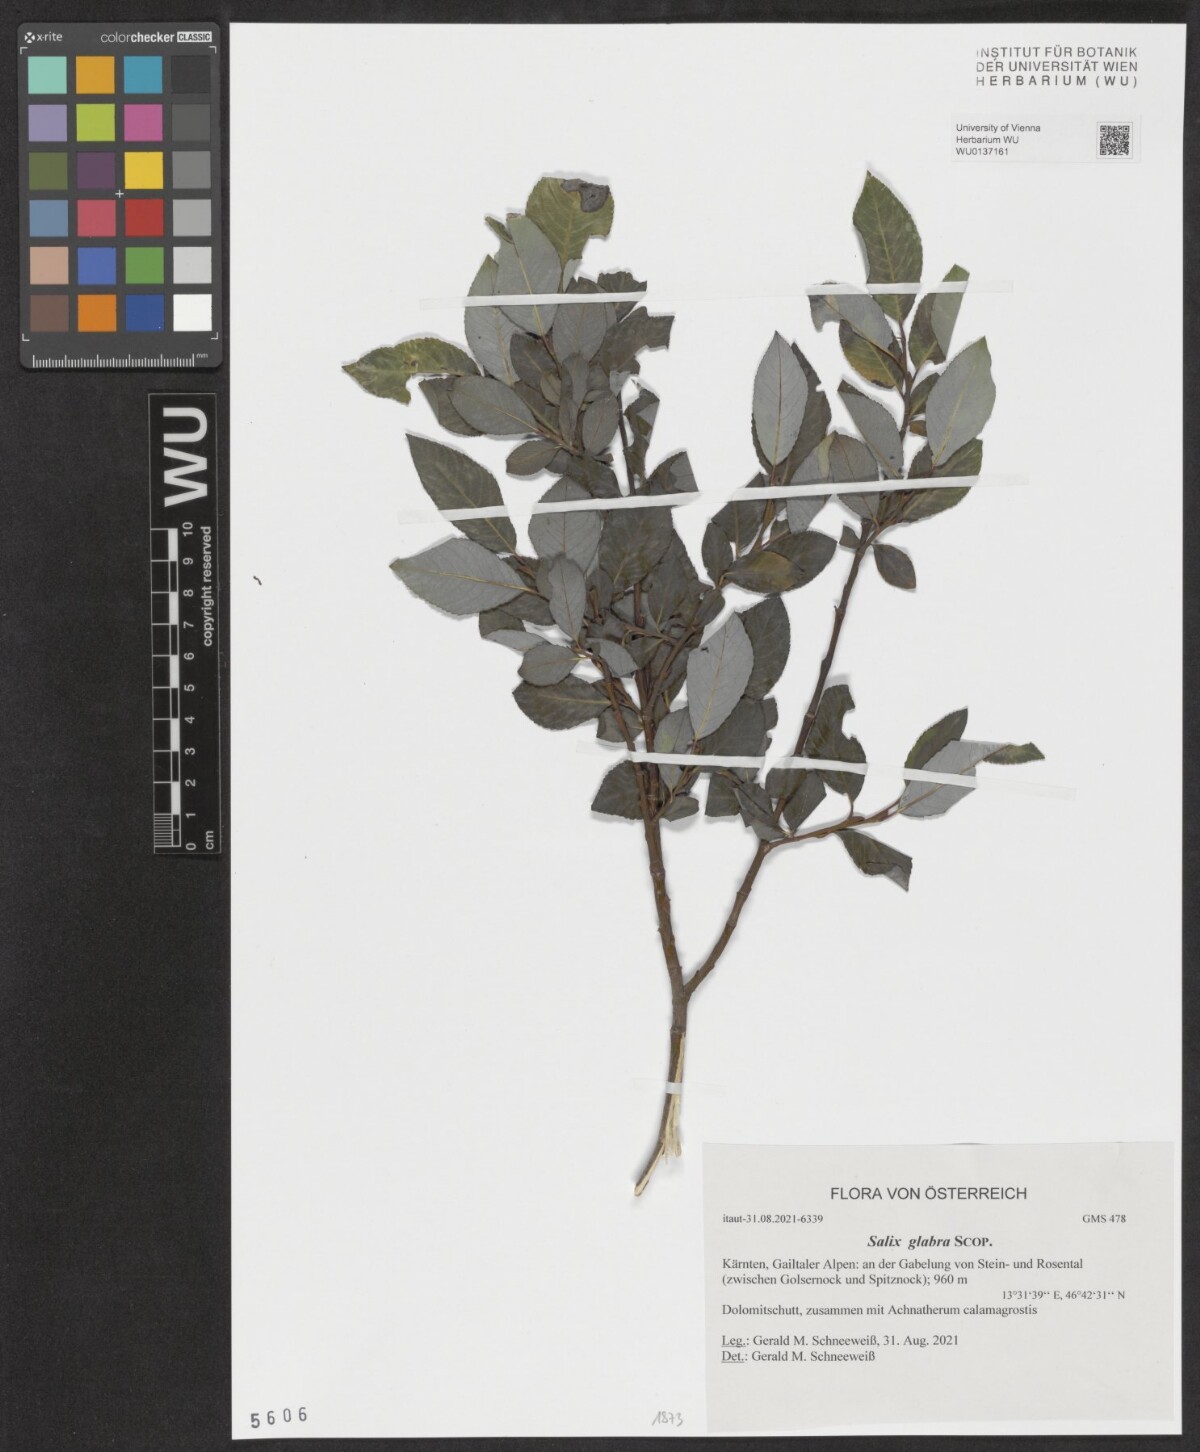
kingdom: Plantae
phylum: Tracheophyta
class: Magnoliopsida
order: Malpighiales
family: Salicaceae
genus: Salix
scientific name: Salix glabra
